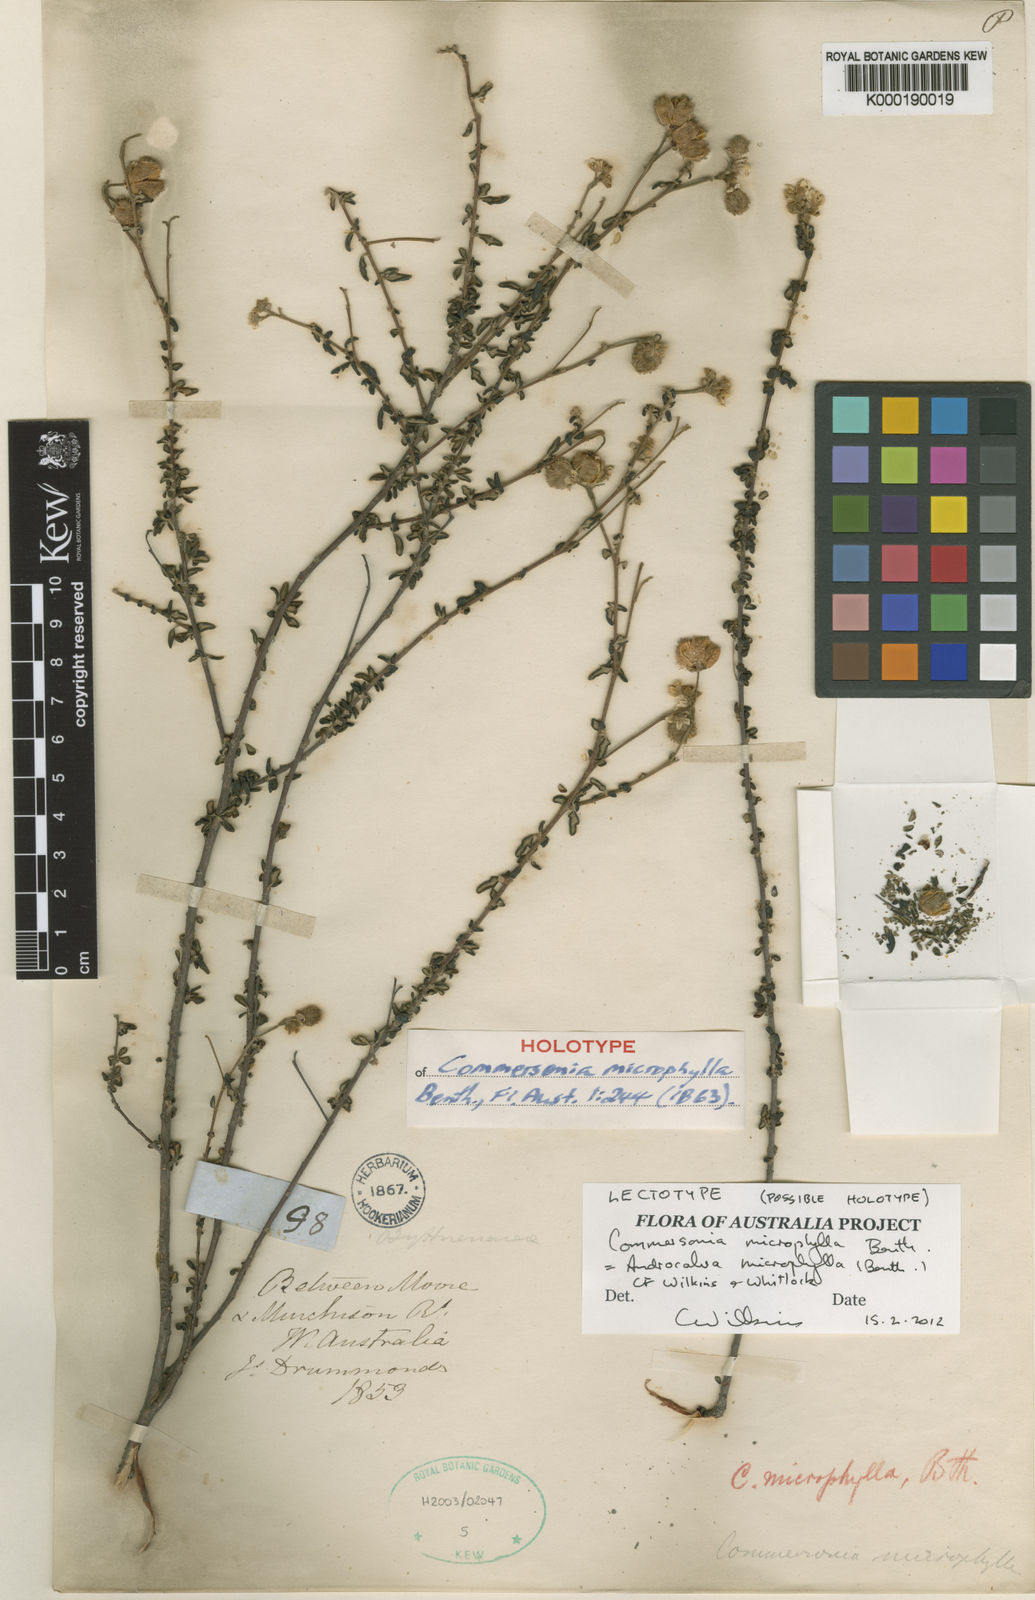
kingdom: Plantae
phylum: Tracheophyta
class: Magnoliopsida
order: Malvales
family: Malvaceae
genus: Androcalva
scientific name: Androcalva microphylla
